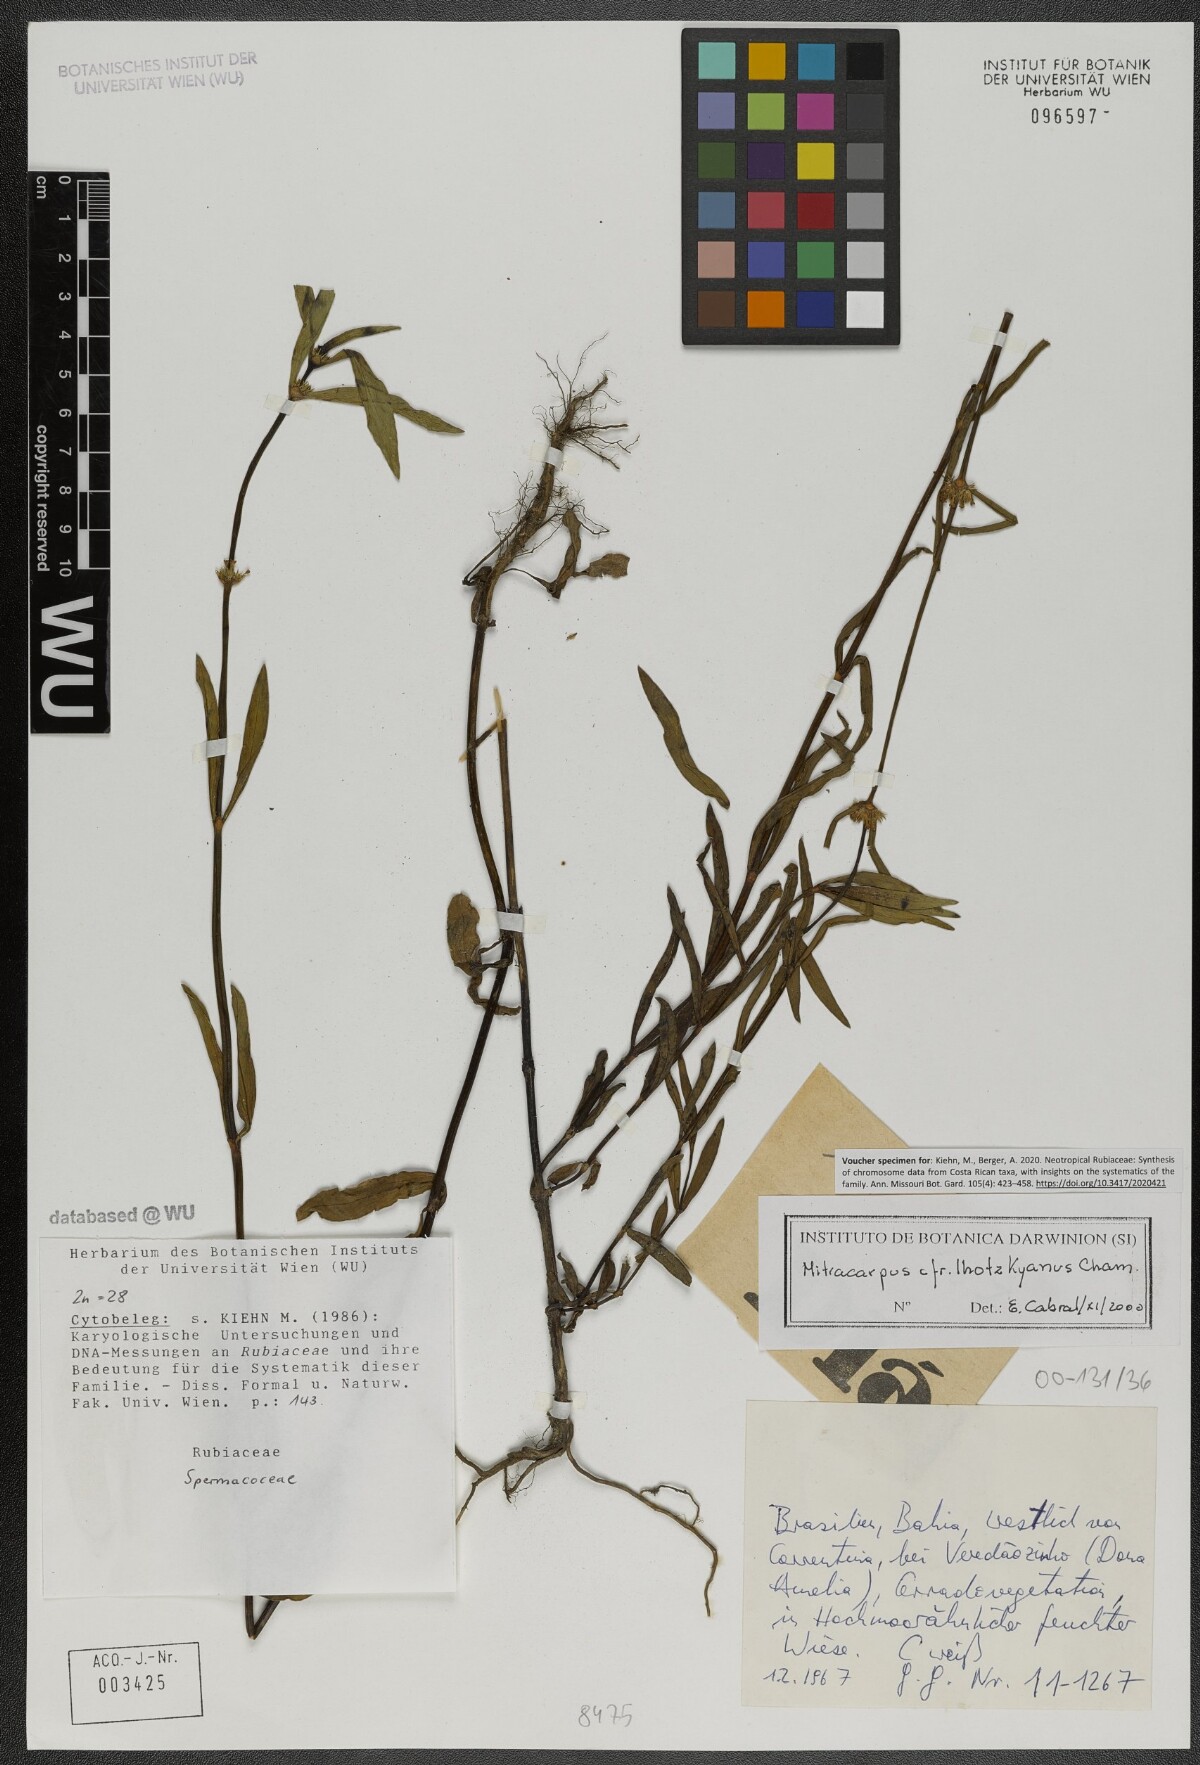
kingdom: Plantae
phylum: Tracheophyta
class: Magnoliopsida
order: Gentianales
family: Rubiaceae
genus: Mitracarpus
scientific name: Mitracarpus lhotzkyanus
